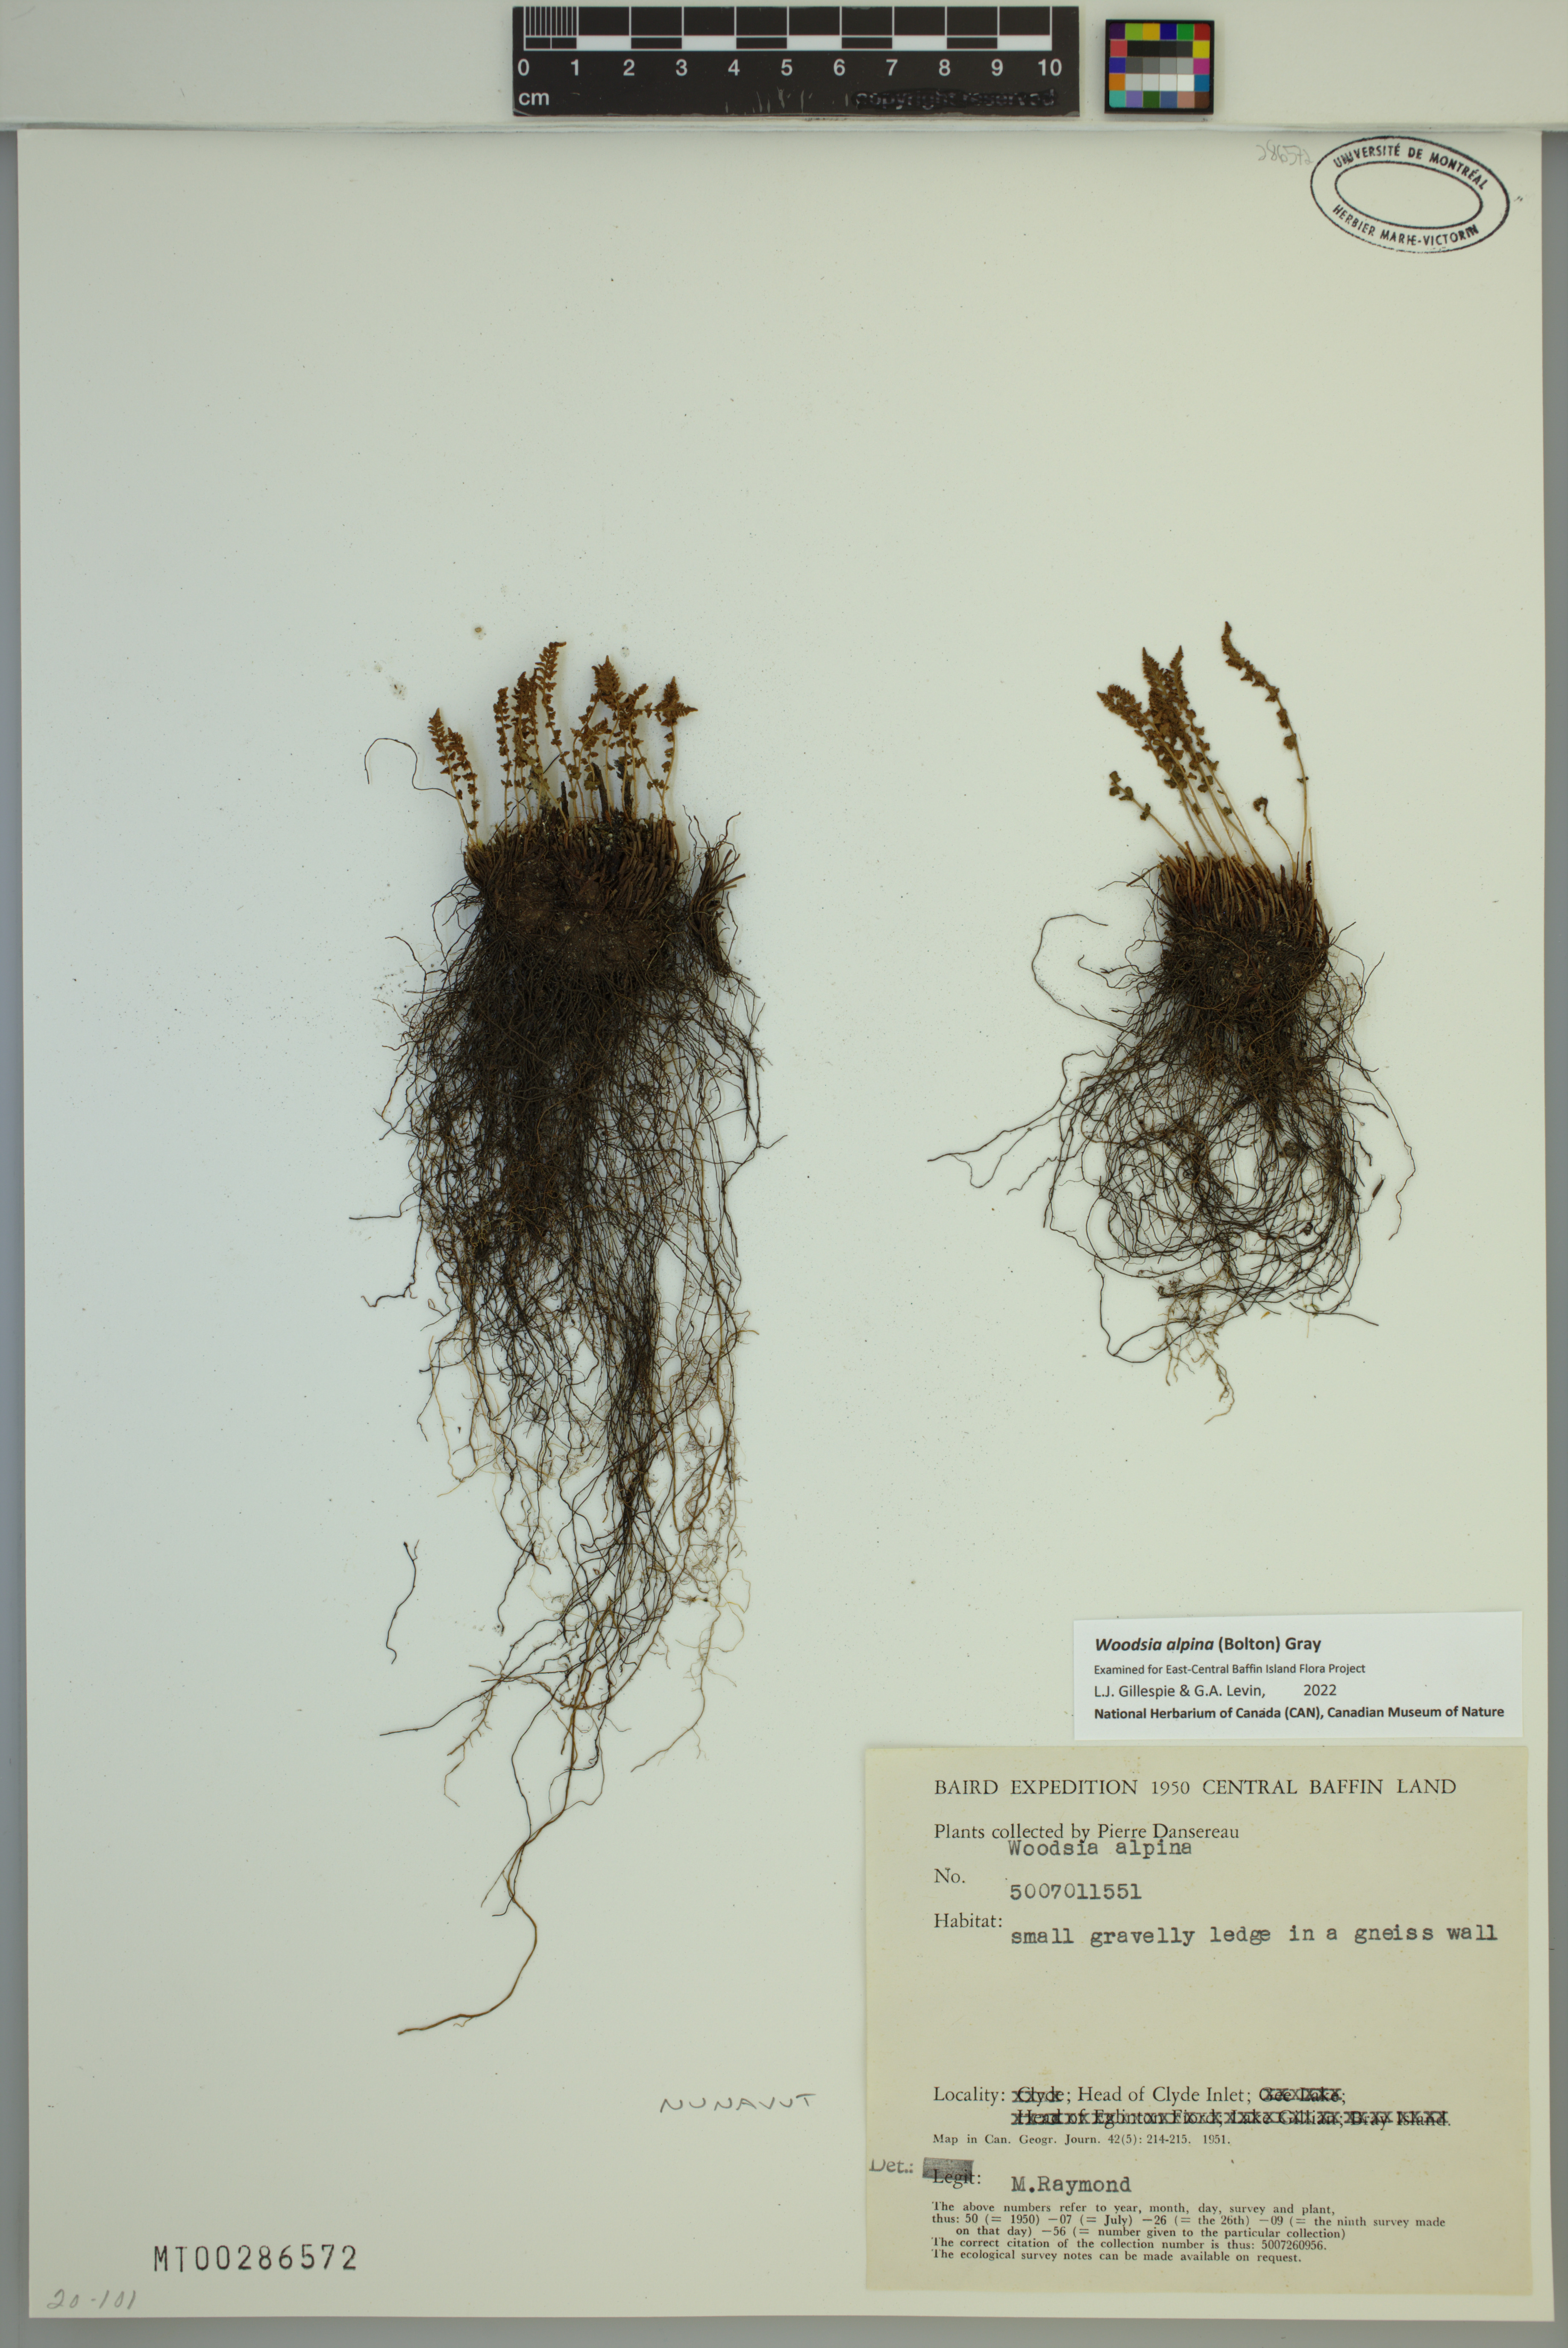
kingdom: Plantae
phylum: Tracheophyta
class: Polypodiopsida
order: Polypodiales
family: Woodsiaceae
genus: Woodsia
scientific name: Woodsia alpina
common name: Alpine woodsia
